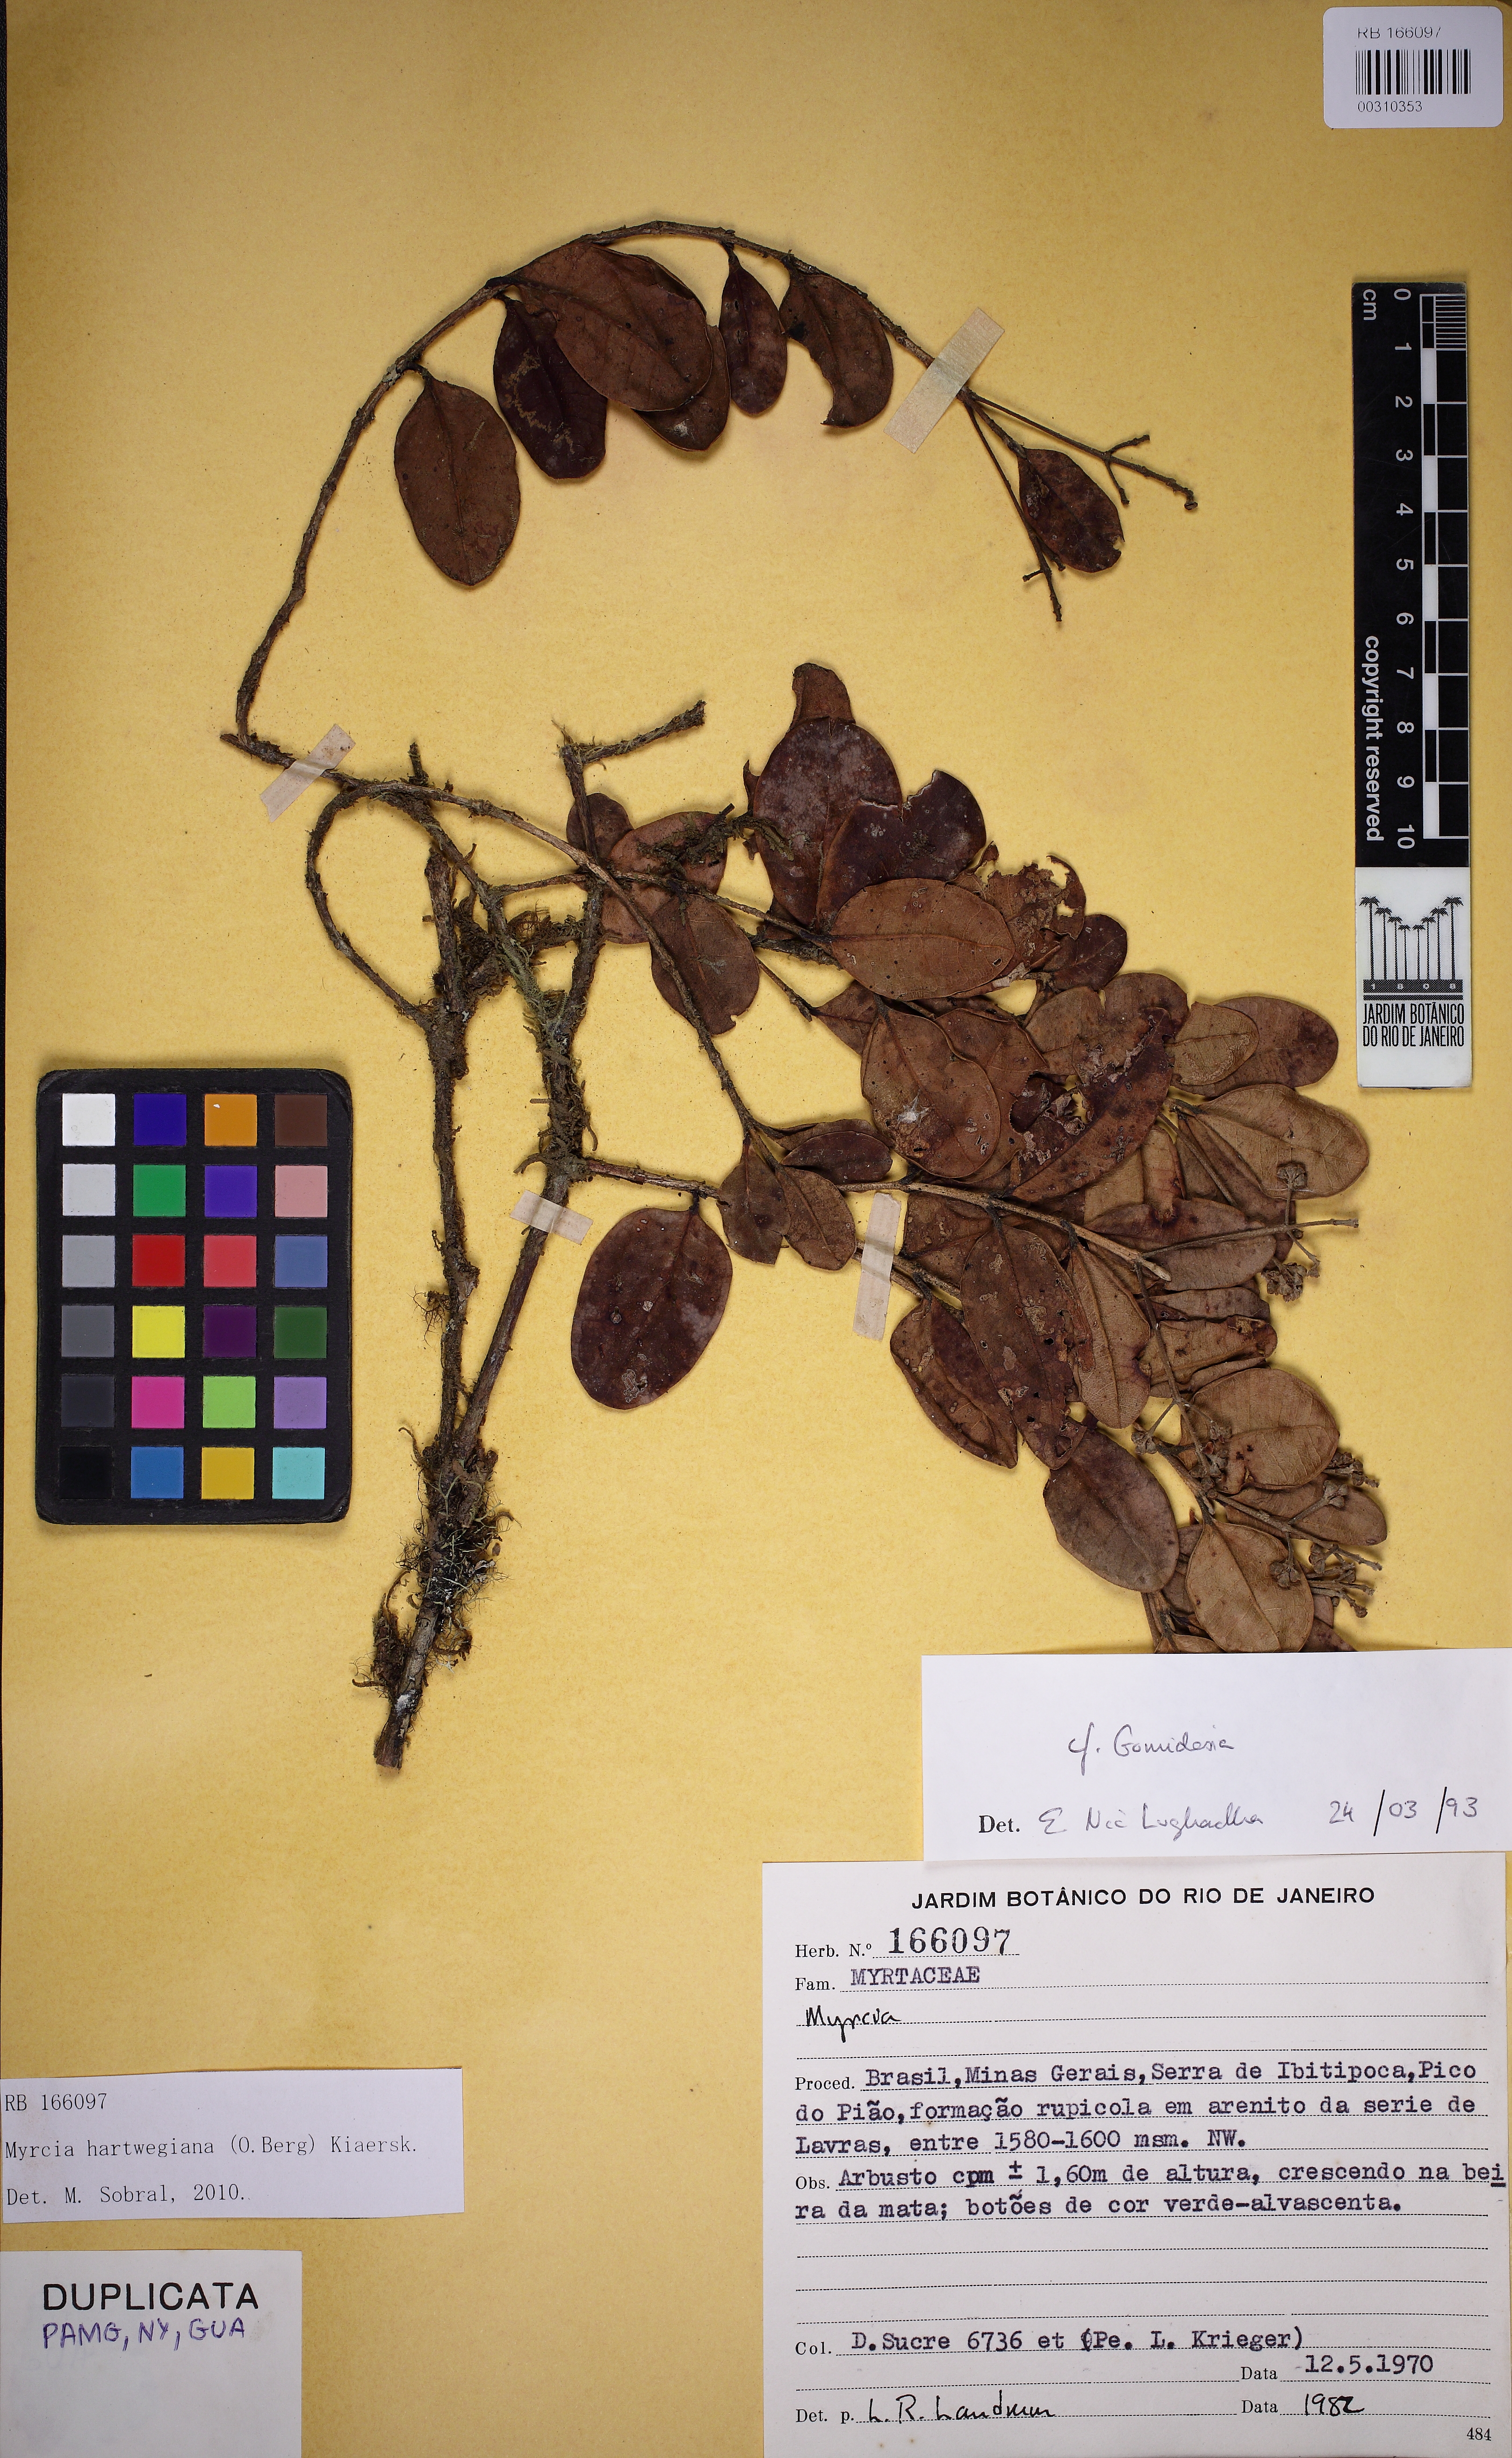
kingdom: Plantae
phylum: Tracheophyta
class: Magnoliopsida
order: Myrtales
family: Myrtaceae
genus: Myrcia
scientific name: Myrcia hartwegiana
